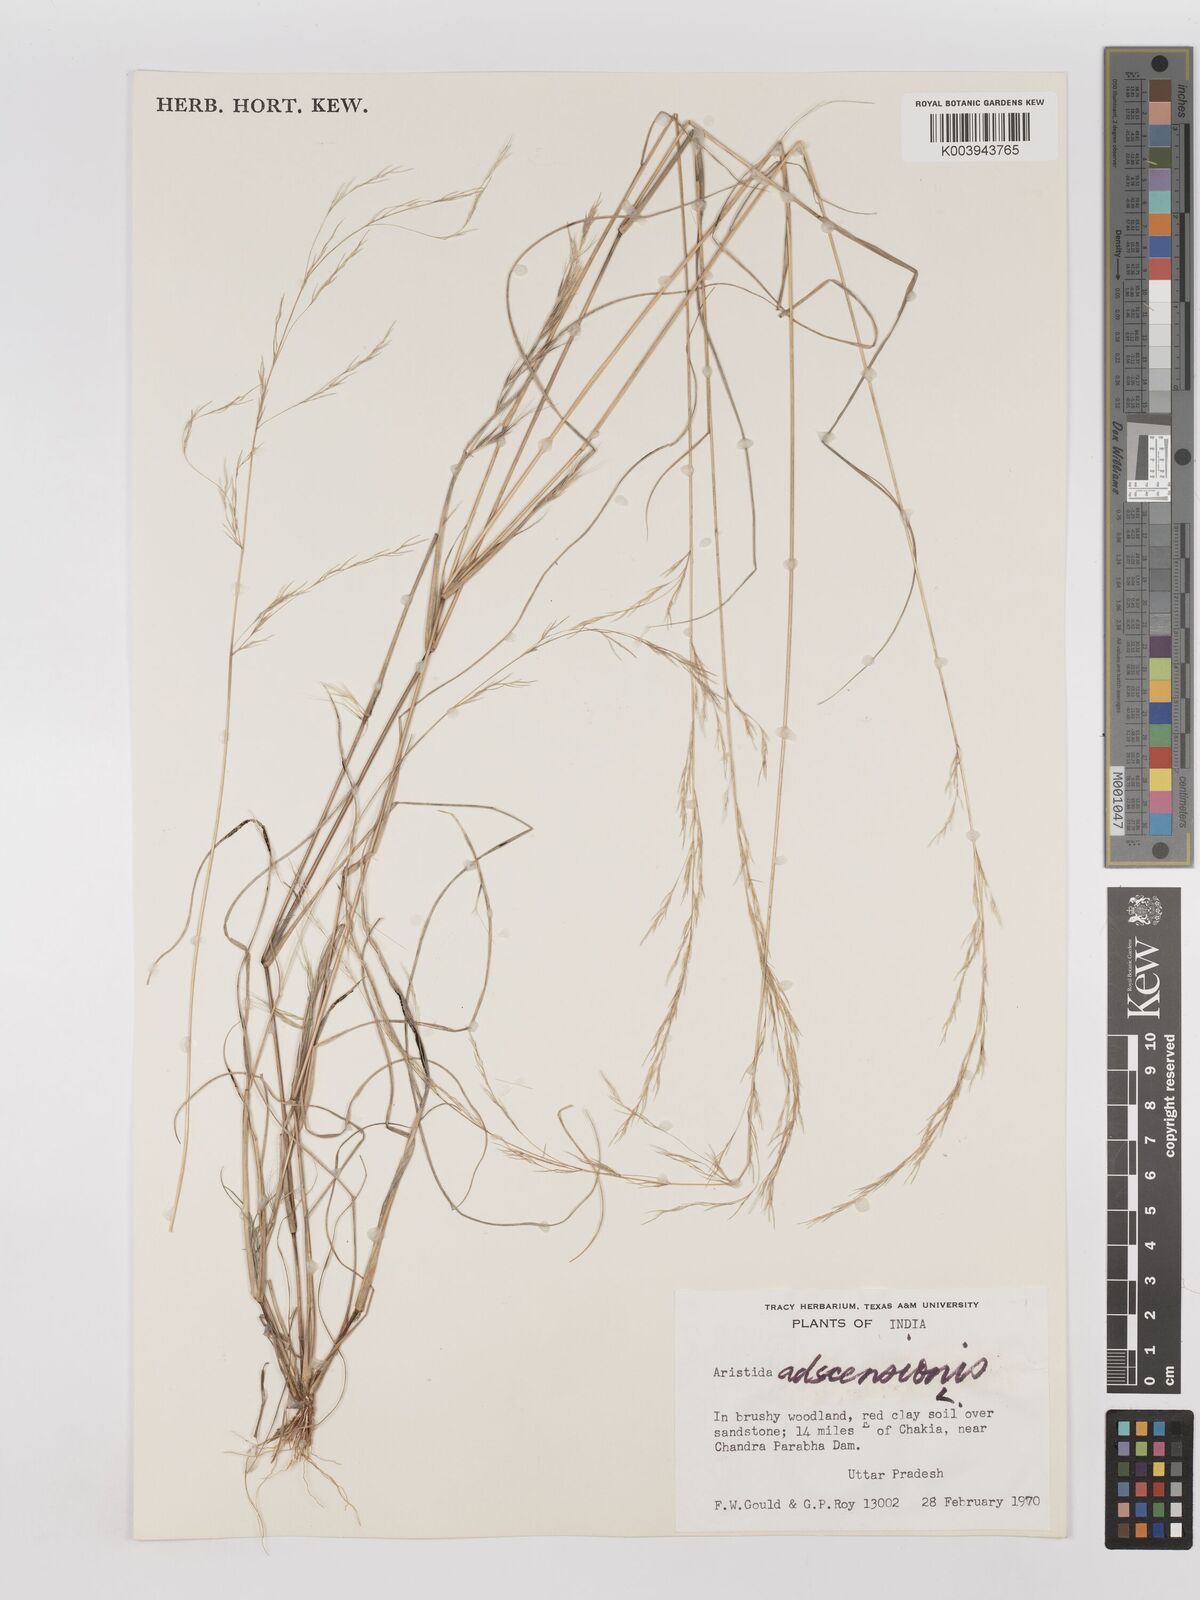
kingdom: Plantae
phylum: Tracheophyta
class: Liliopsida
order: Poales
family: Poaceae
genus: Aristida
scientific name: Aristida adscensionis
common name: Sixweeks threeawn
